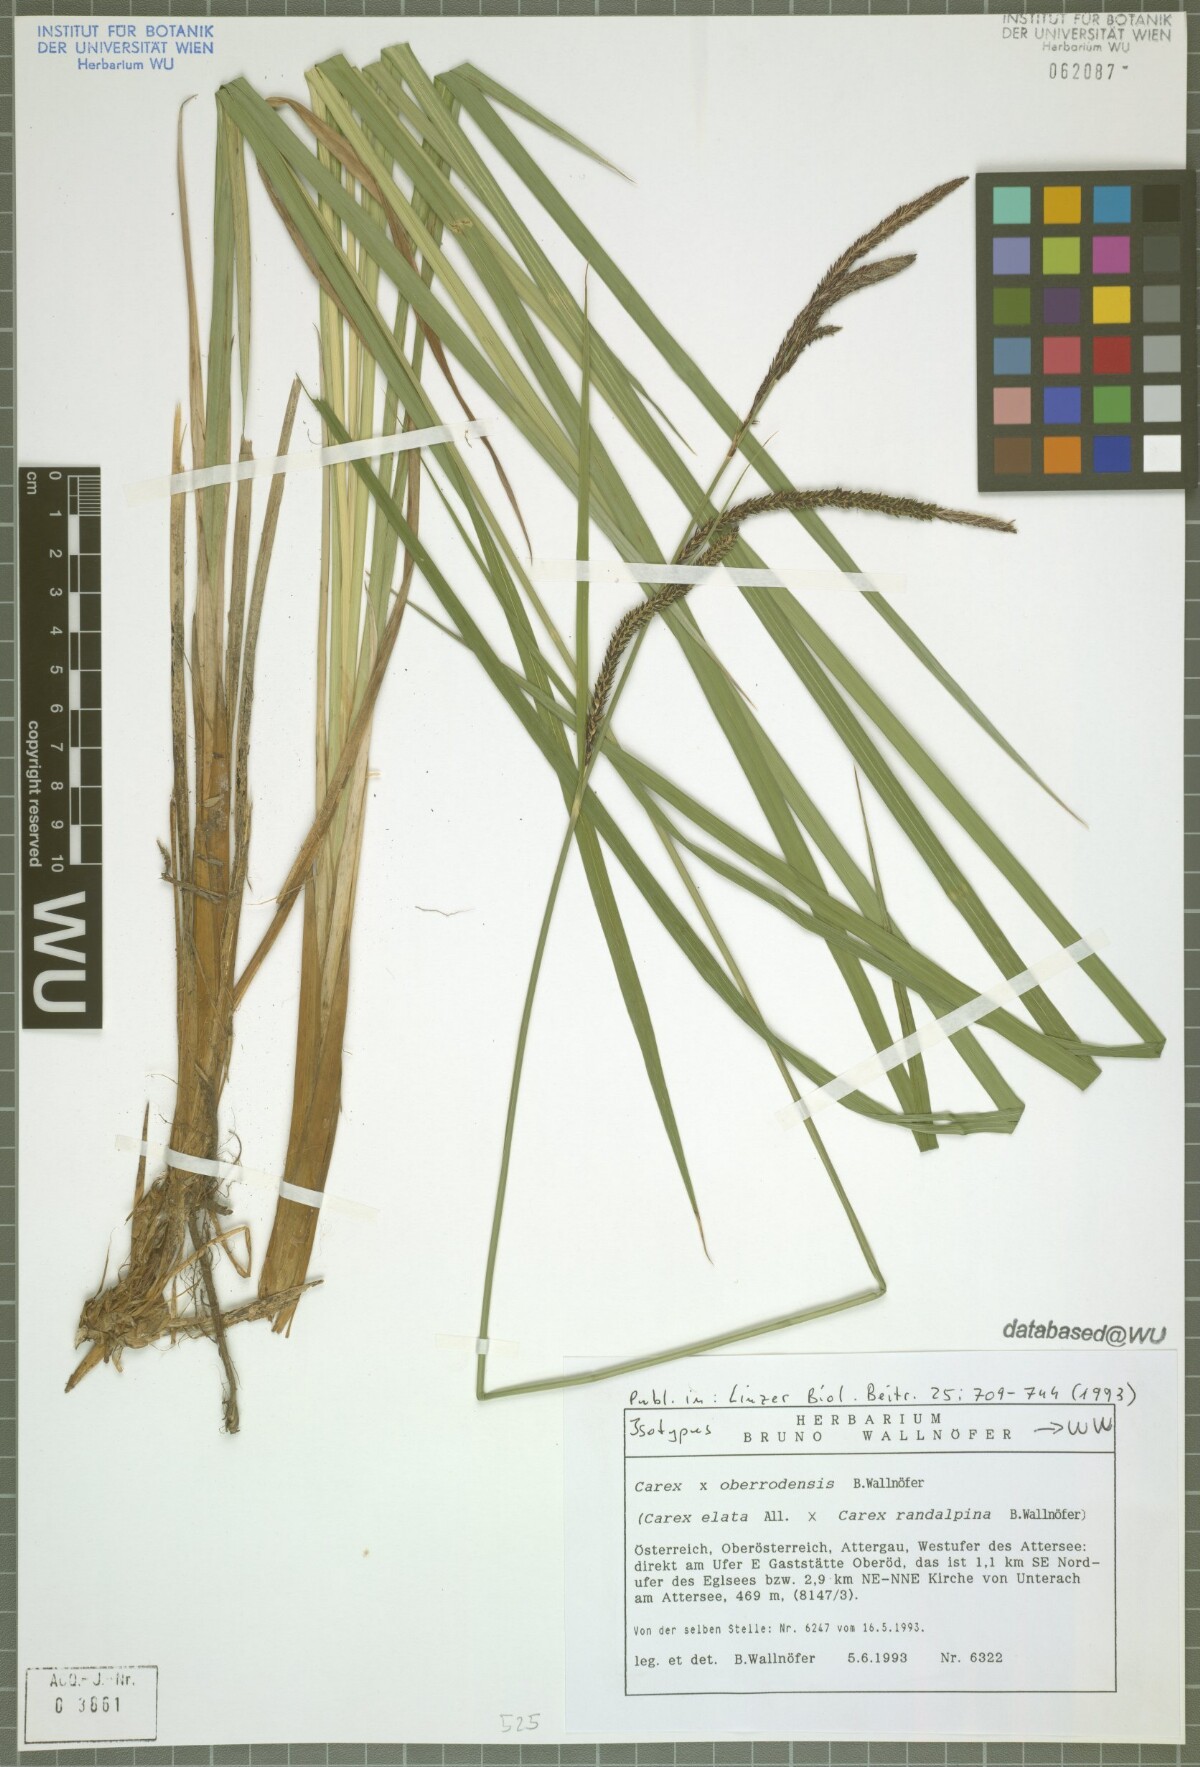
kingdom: Plantae
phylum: Tracheophyta
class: Liliopsida
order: Poales
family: Cyperaceae
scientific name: Cyperaceae
